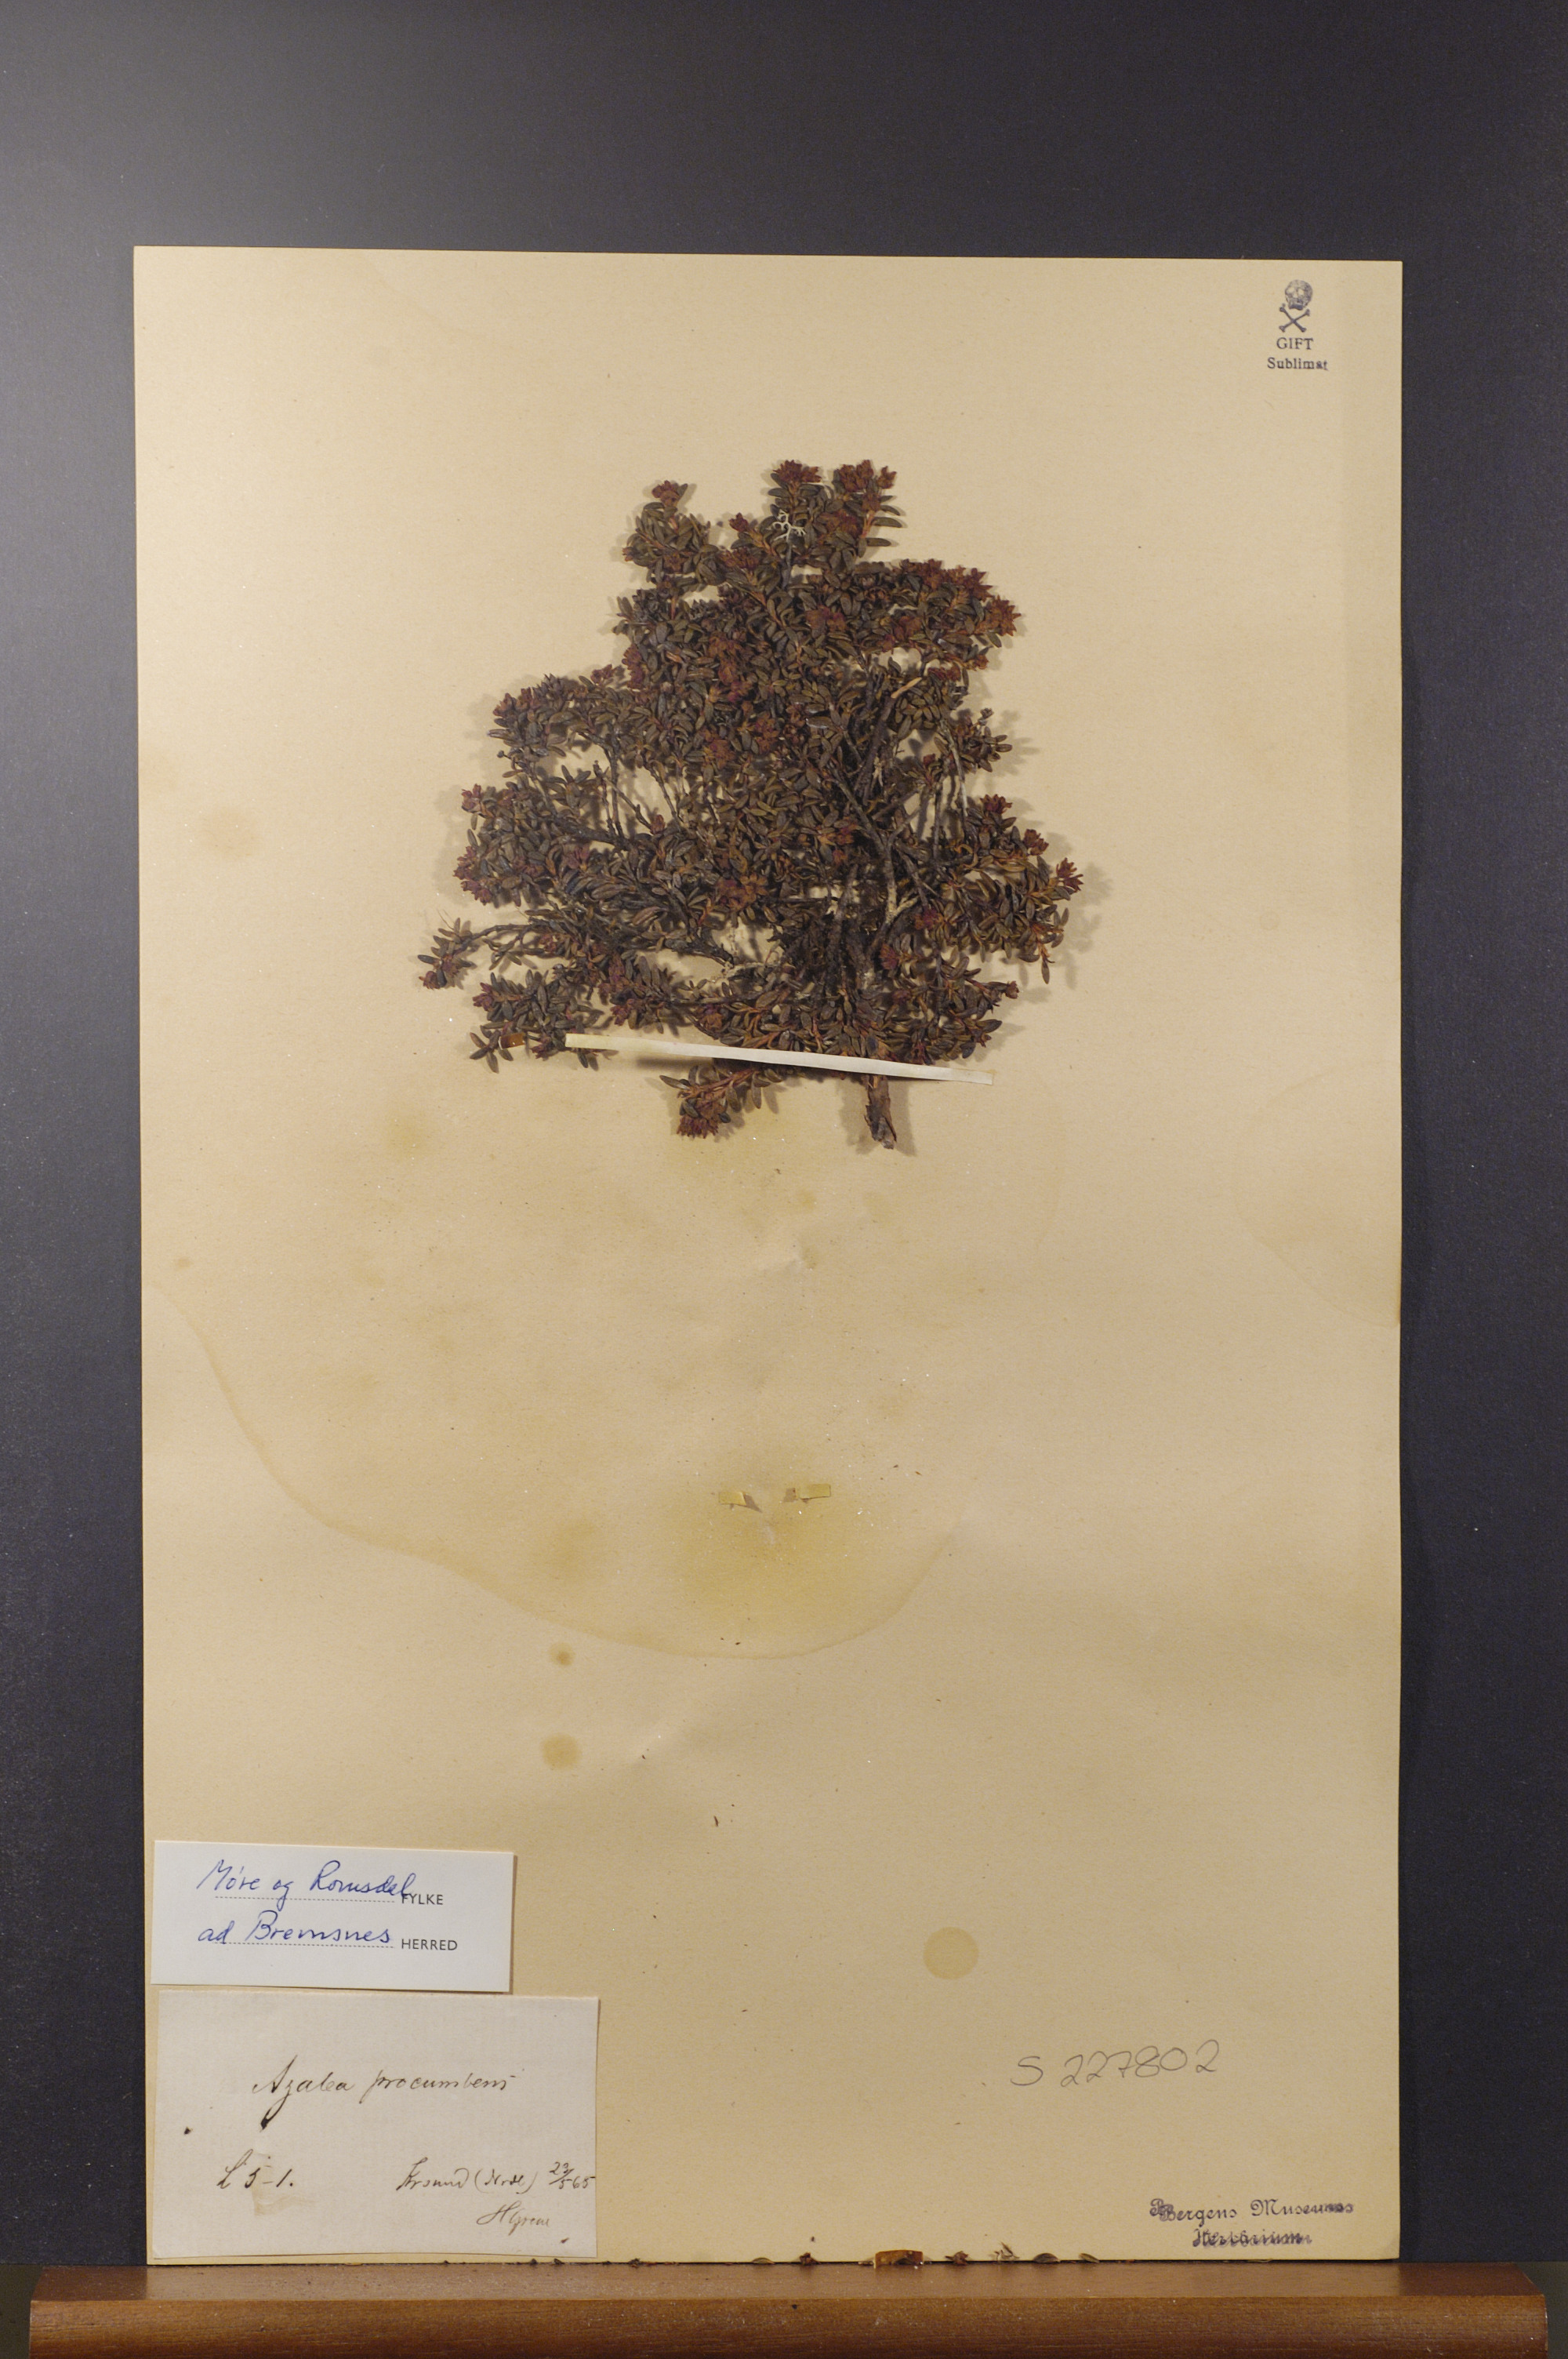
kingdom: Plantae
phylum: Tracheophyta
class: Magnoliopsida
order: Ericales
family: Ericaceae
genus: Kalmia
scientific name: Kalmia procumbens
